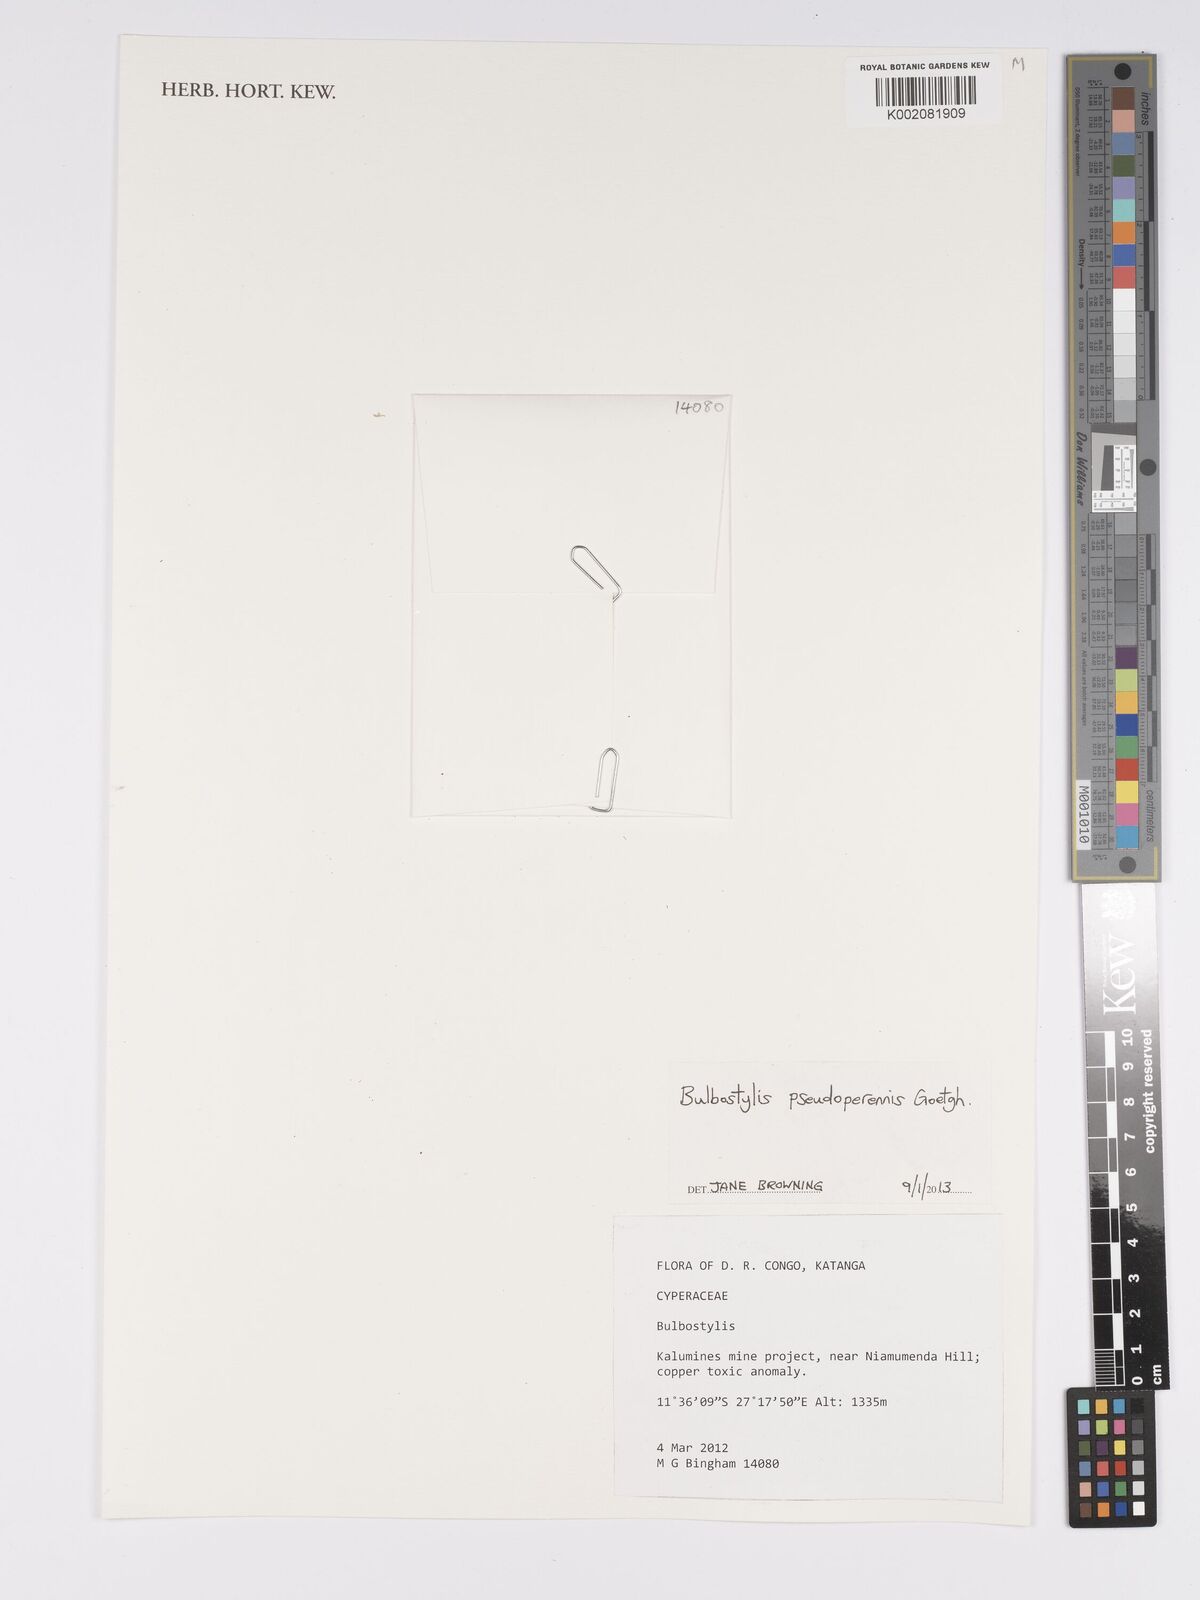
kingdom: Plantae
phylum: Tracheophyta
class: Liliopsida
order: Poales
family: Cyperaceae
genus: Bulbostylis
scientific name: Bulbostylis abbreviata
